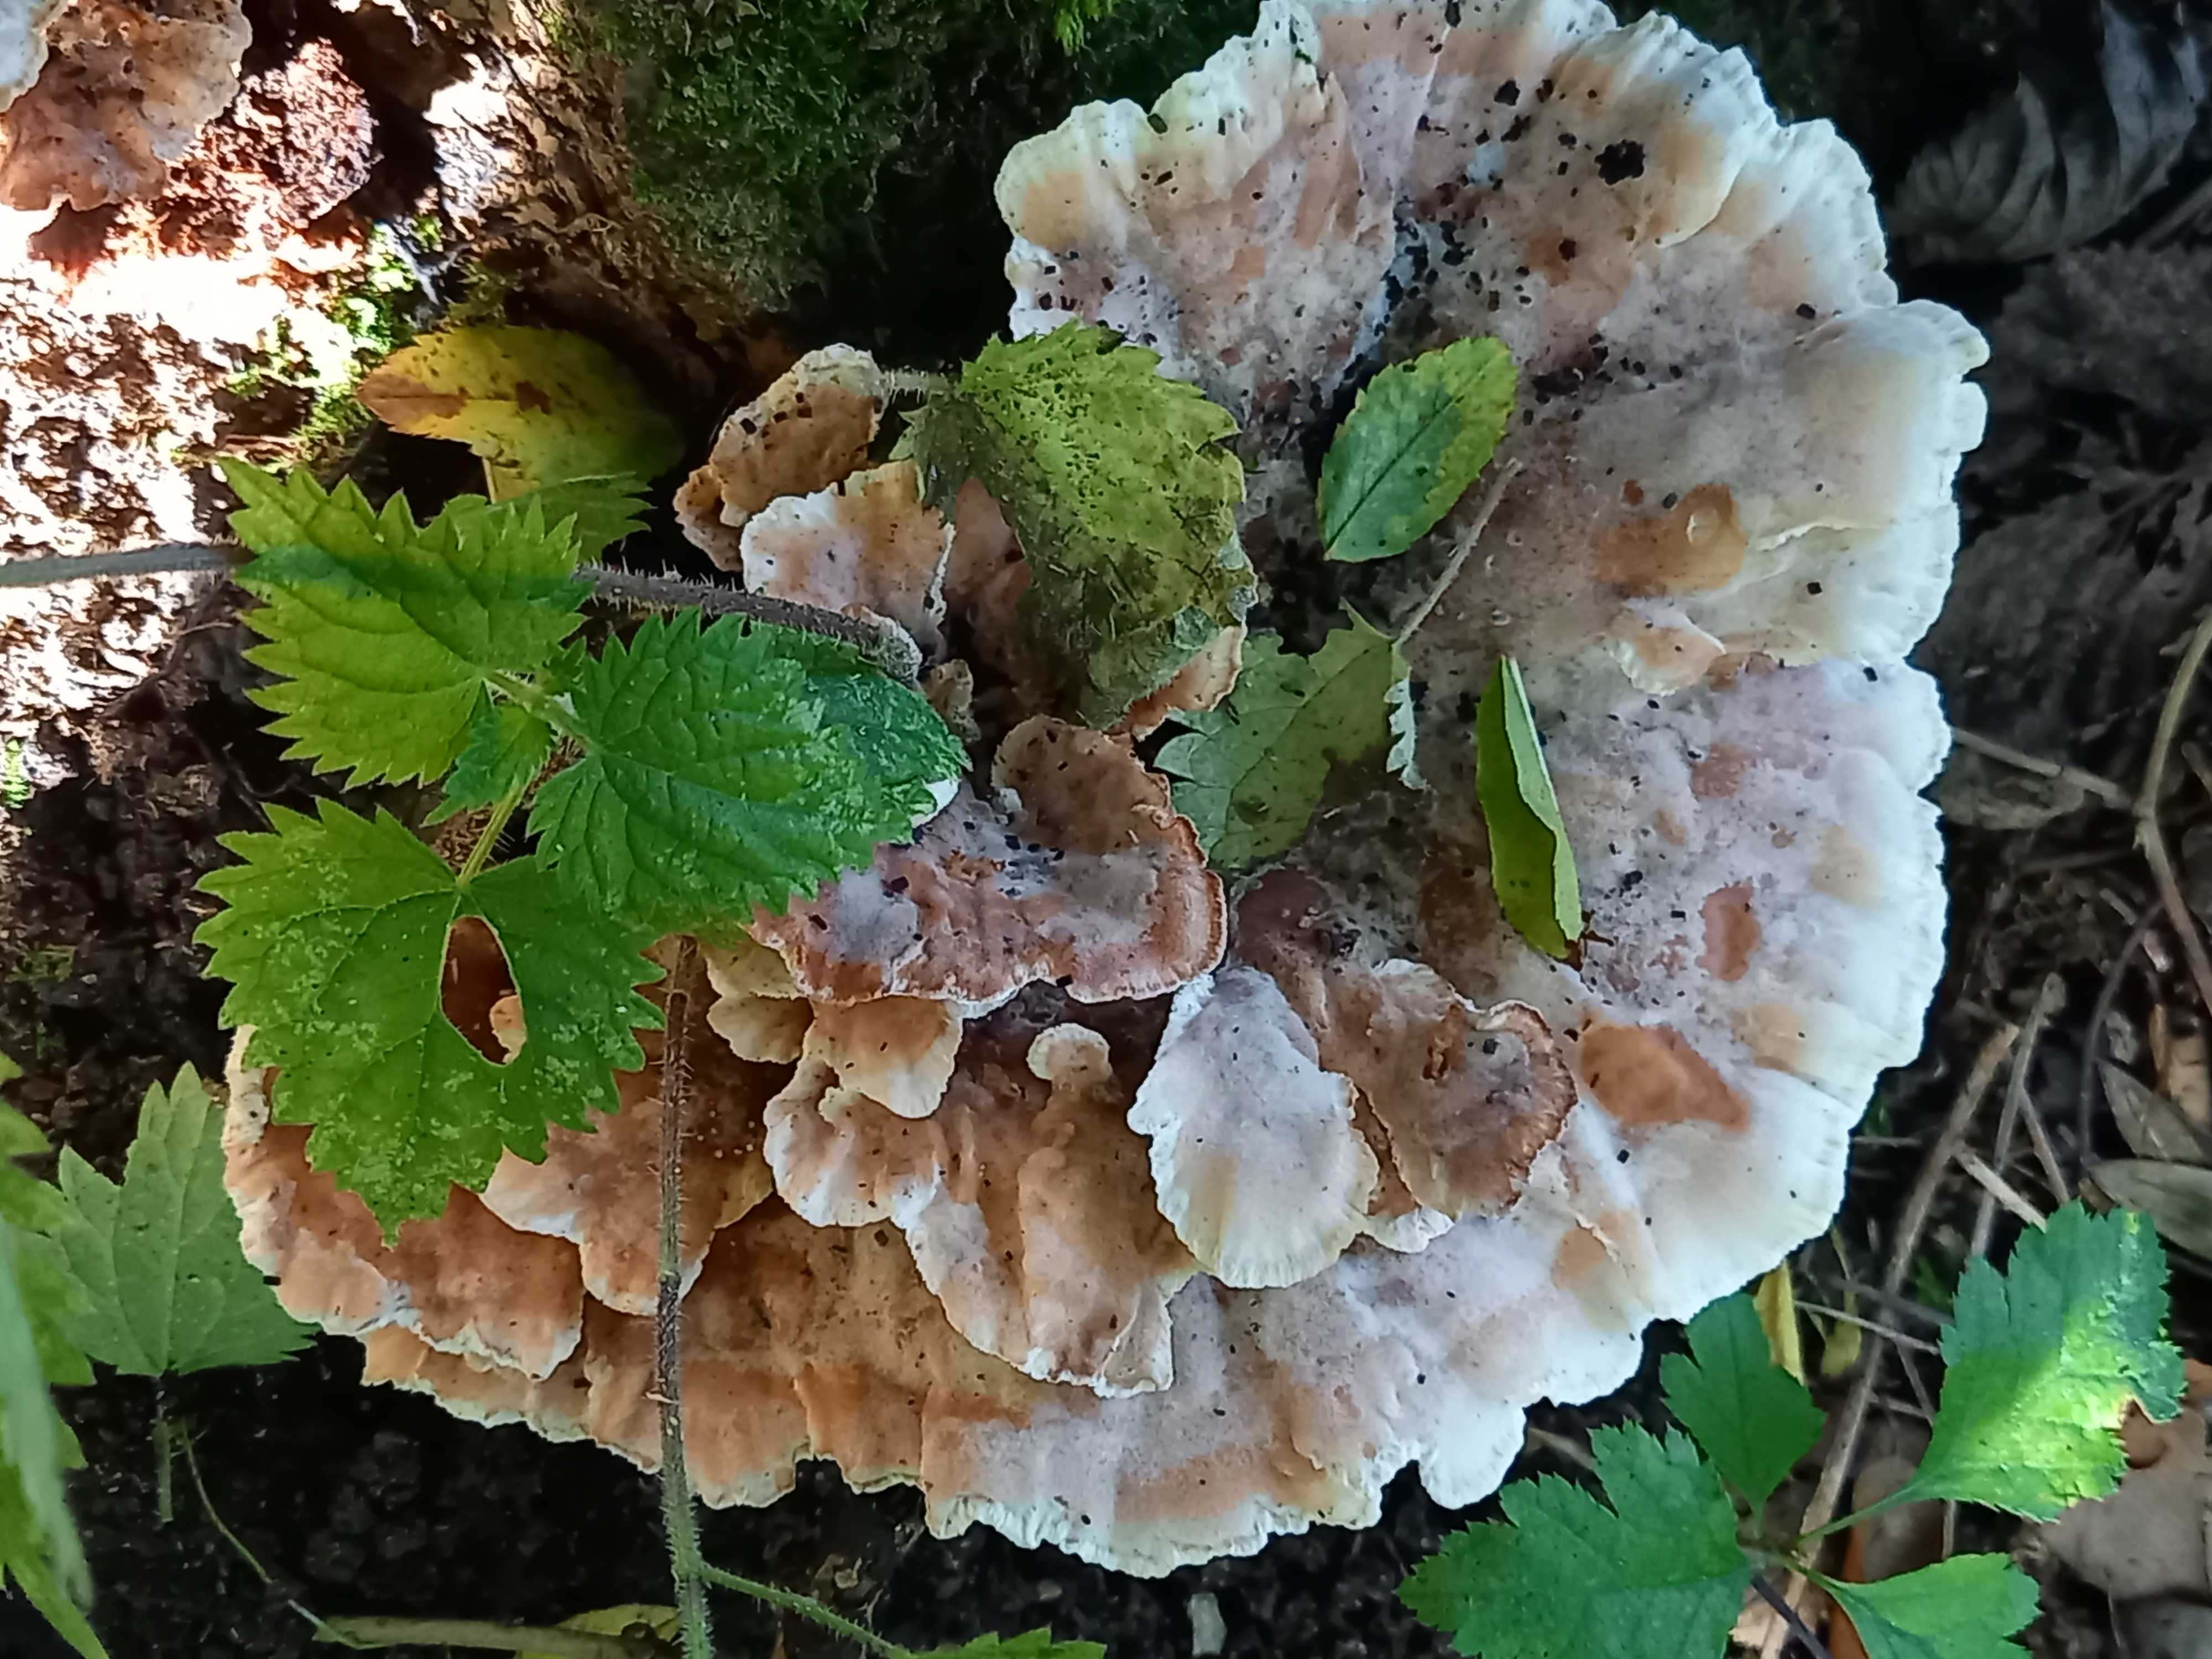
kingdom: Fungi
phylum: Basidiomycota
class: Agaricomycetes
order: Polyporales
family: Podoscyphaceae
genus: Abortiporus
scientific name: Abortiporus biennis
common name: rødmende pjalteporesvamp
